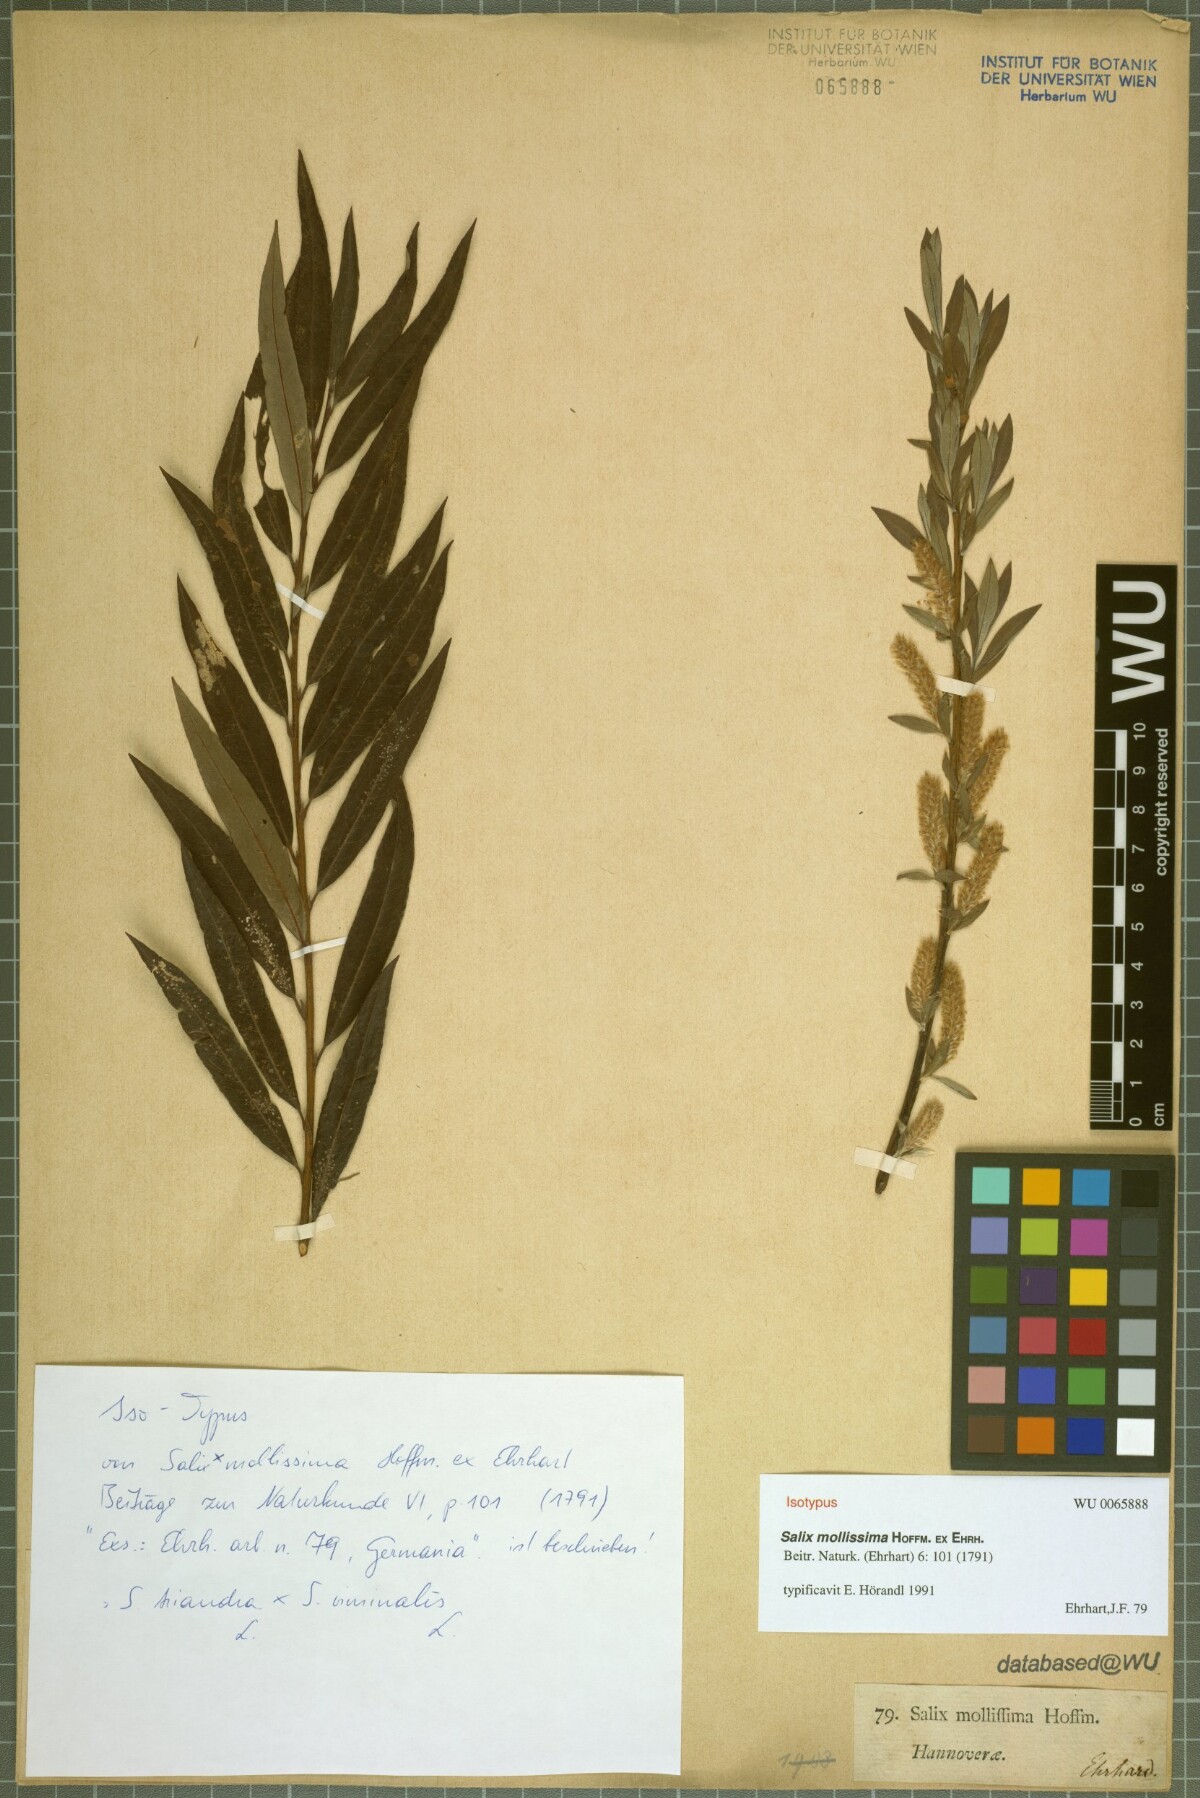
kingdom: Plantae
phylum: Tracheophyta
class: Magnoliopsida
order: Malpighiales
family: Salicaceae
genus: Salix
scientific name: Salix mollissima
